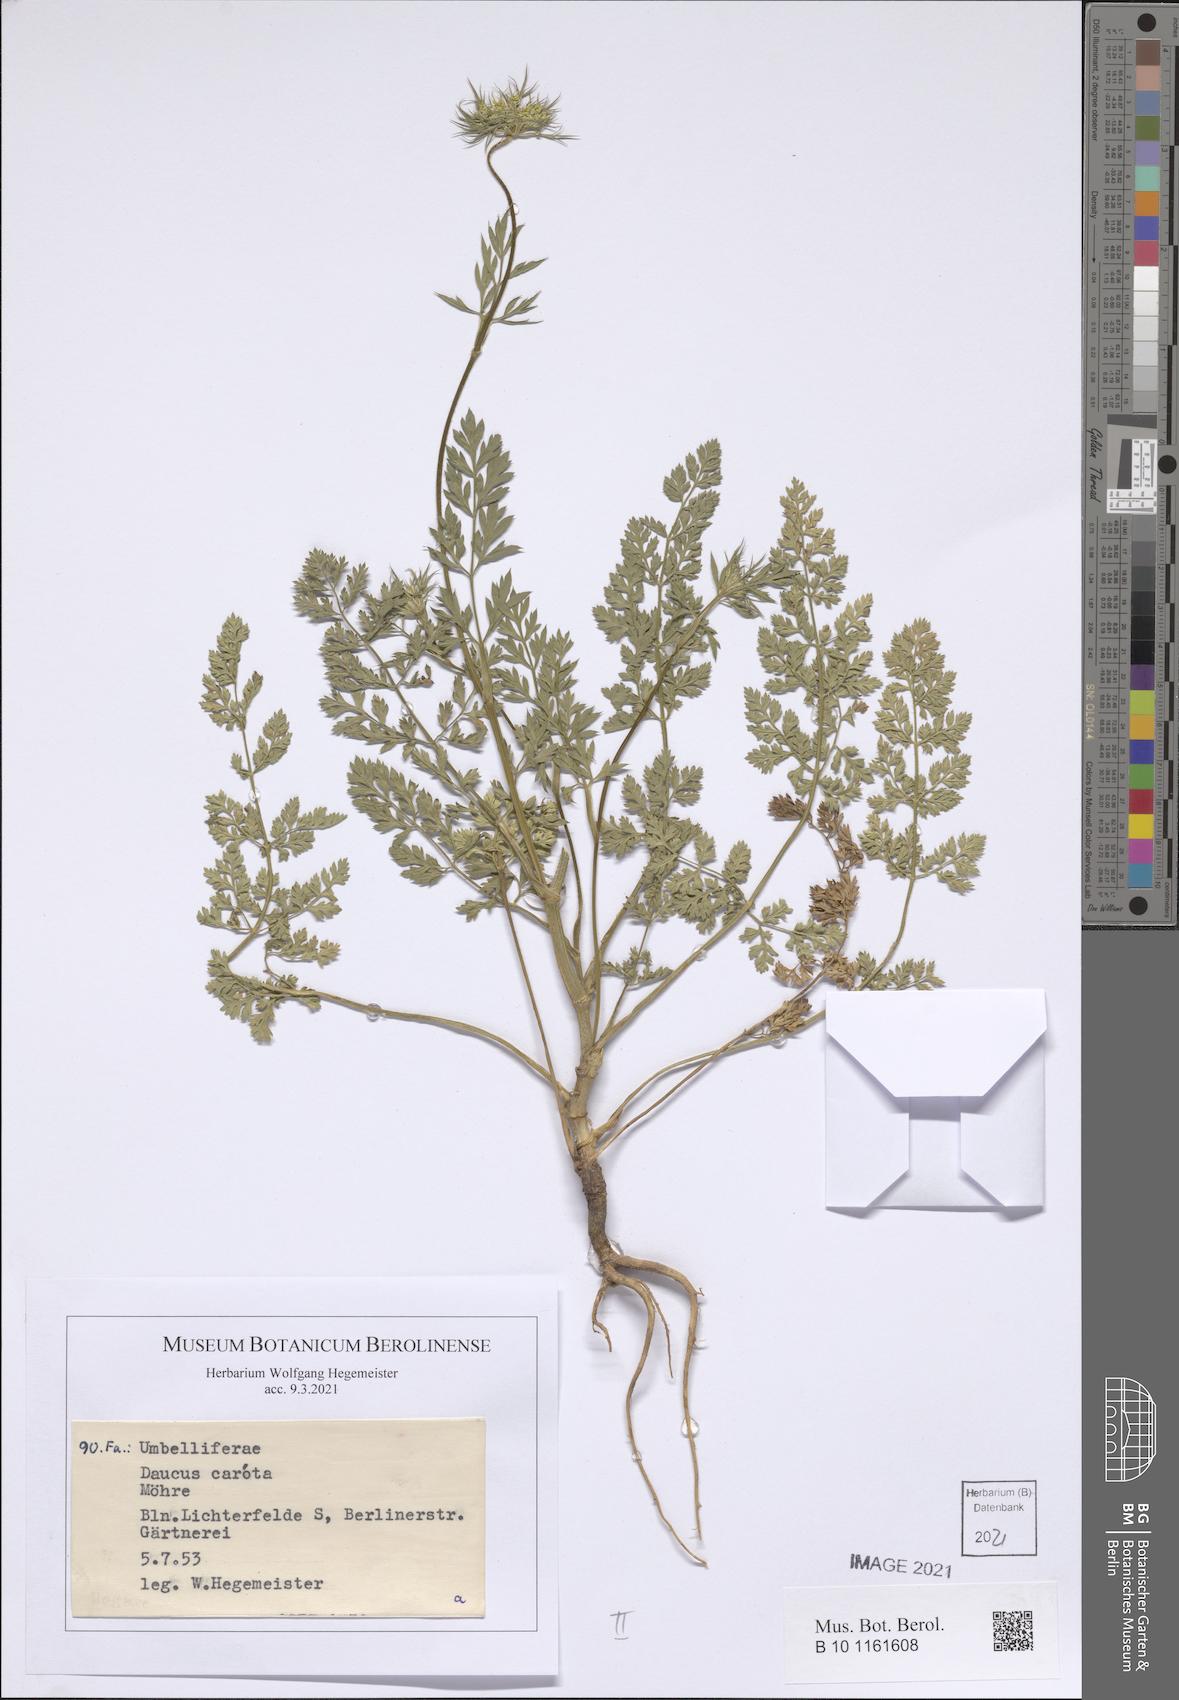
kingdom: Plantae
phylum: Tracheophyta
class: Magnoliopsida
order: Apiales
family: Apiaceae
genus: Daucus
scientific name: Daucus carota
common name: Wild carrot
